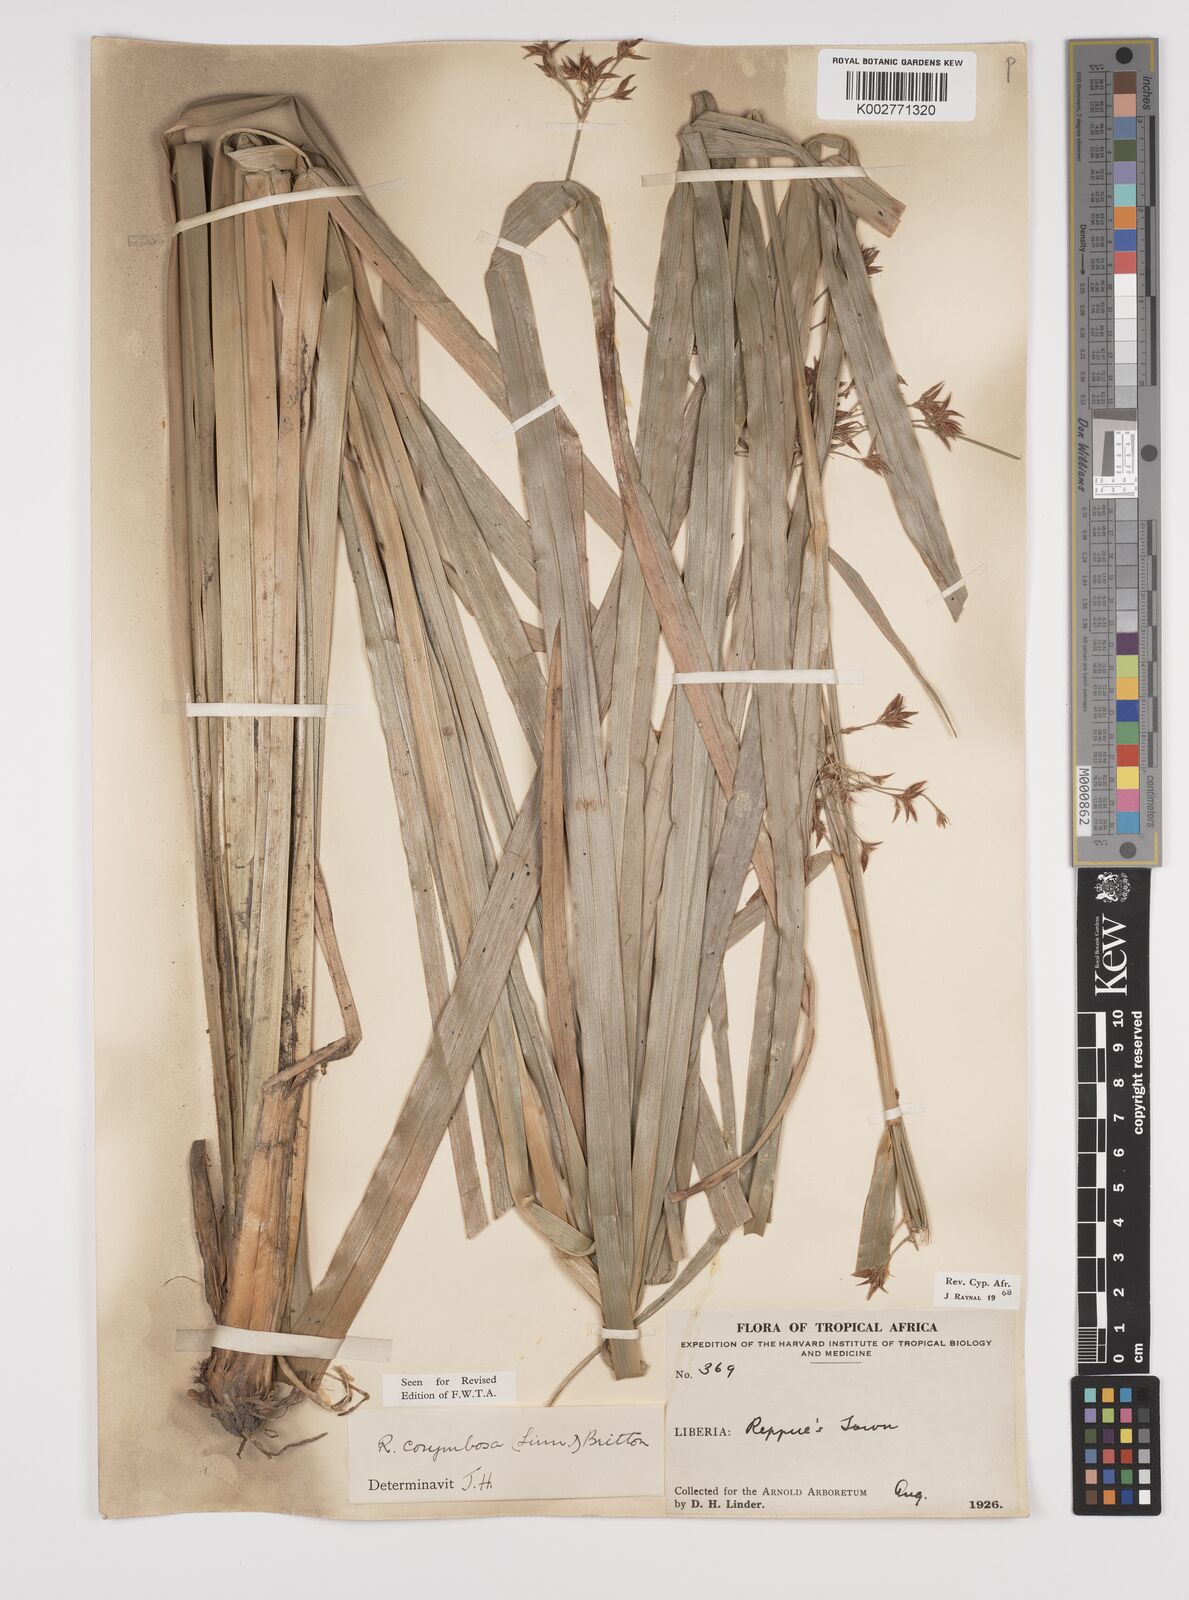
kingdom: Plantae
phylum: Tracheophyta
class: Liliopsida
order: Poales
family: Cyperaceae
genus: Rhynchospora
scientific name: Rhynchospora corymbosa
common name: Golden beak sedge
